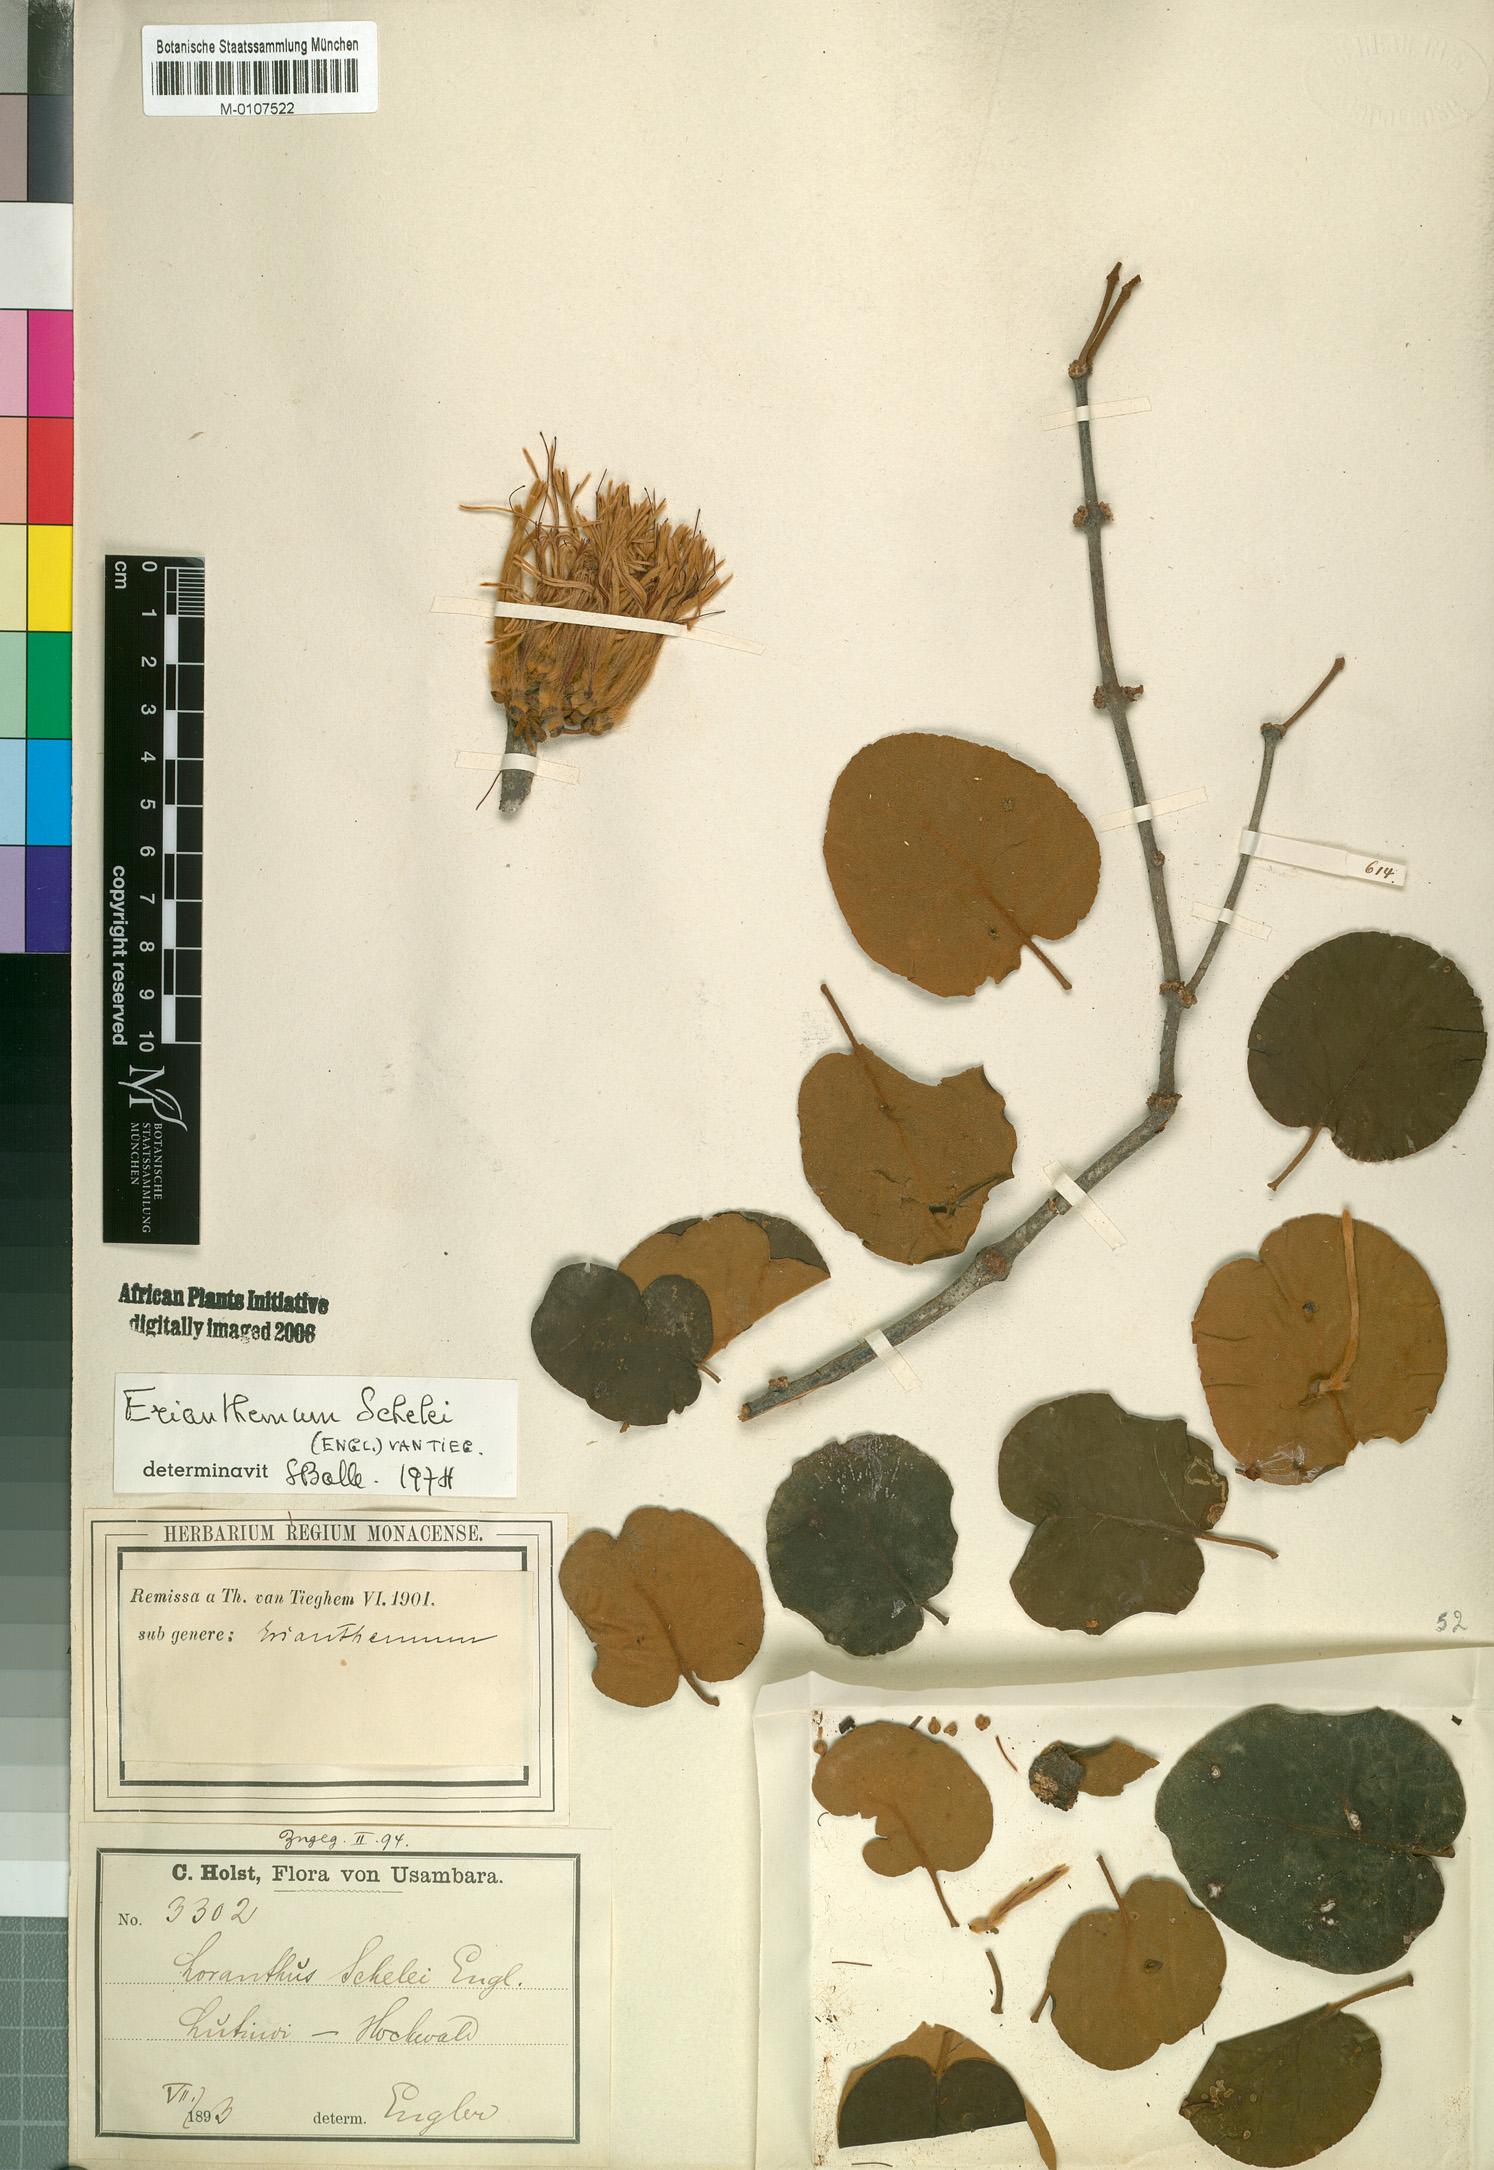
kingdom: Plantae
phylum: Tracheophyta
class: Magnoliopsida
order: Santalales
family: Loranthaceae
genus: Erianthemum
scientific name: Erianthemum schelei
